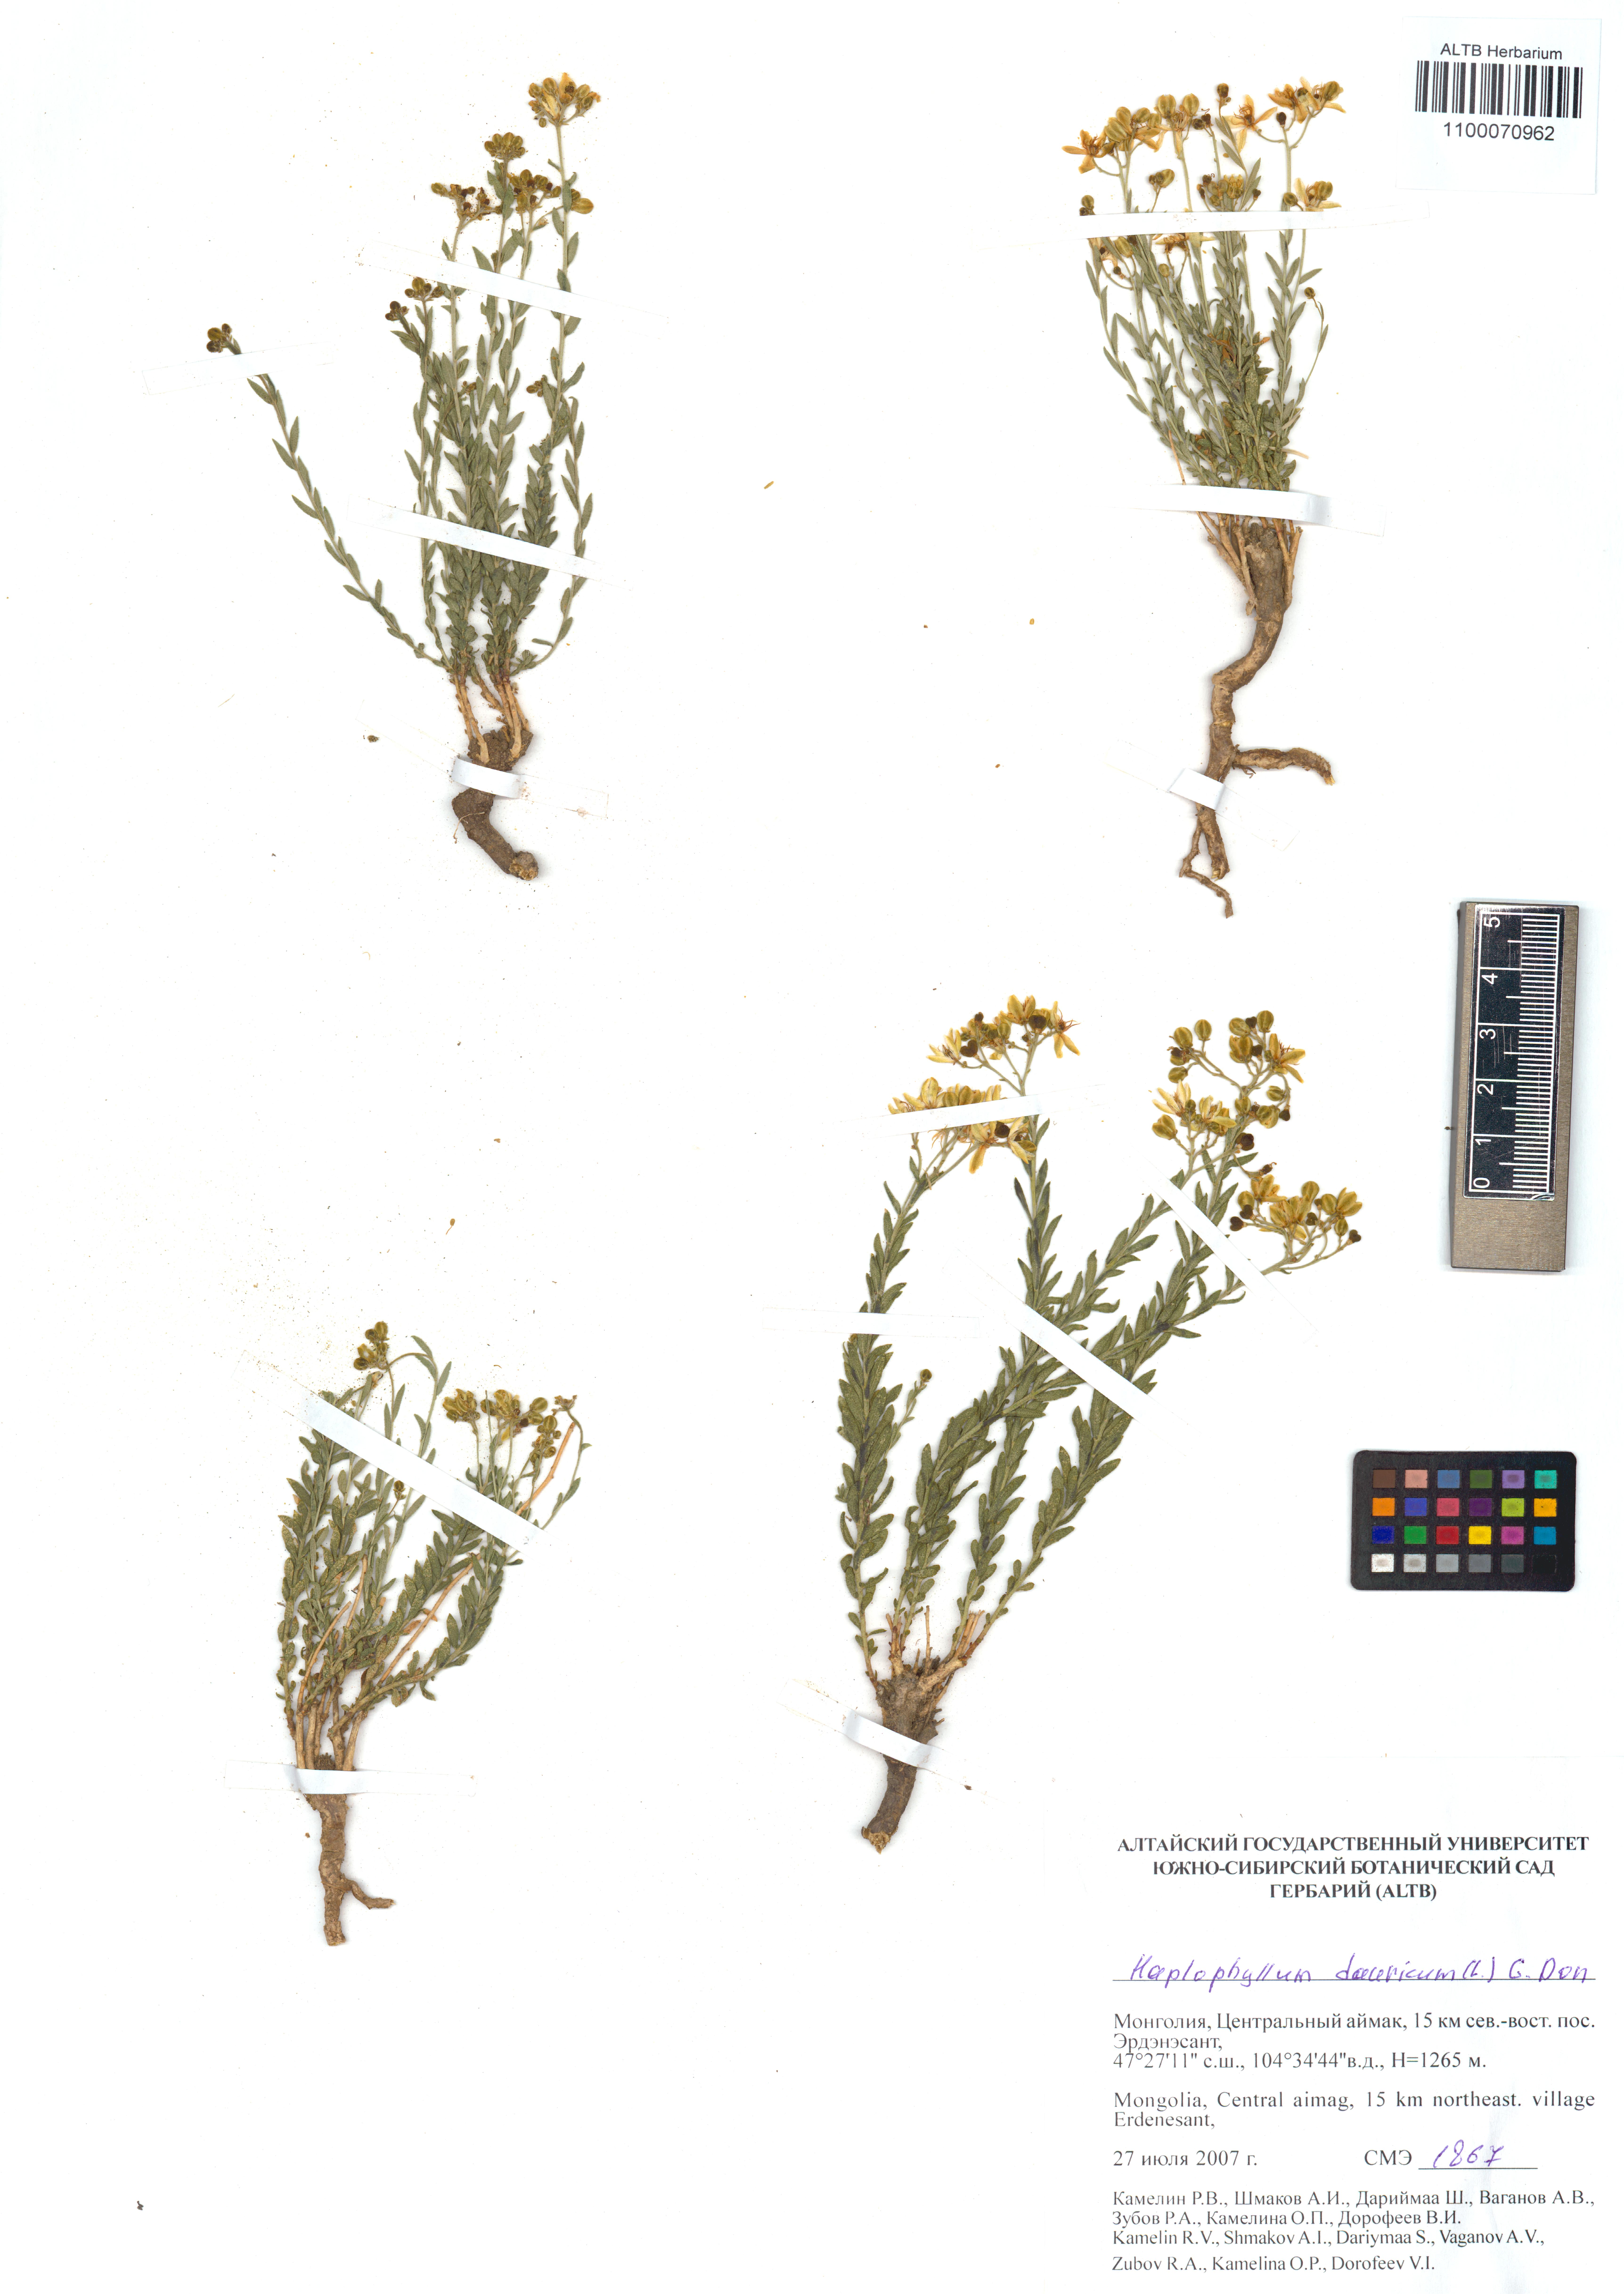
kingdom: Plantae
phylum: Tracheophyta
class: Magnoliopsida
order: Sapindales
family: Rutaceae
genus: Haplophyllum
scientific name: Haplophyllum dauricum
